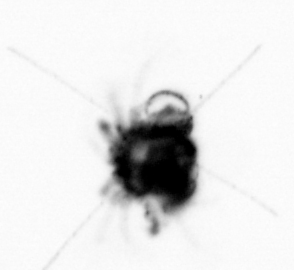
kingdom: Animalia
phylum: Arthropoda
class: Malacostraca
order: Decapoda
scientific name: Decapoda
